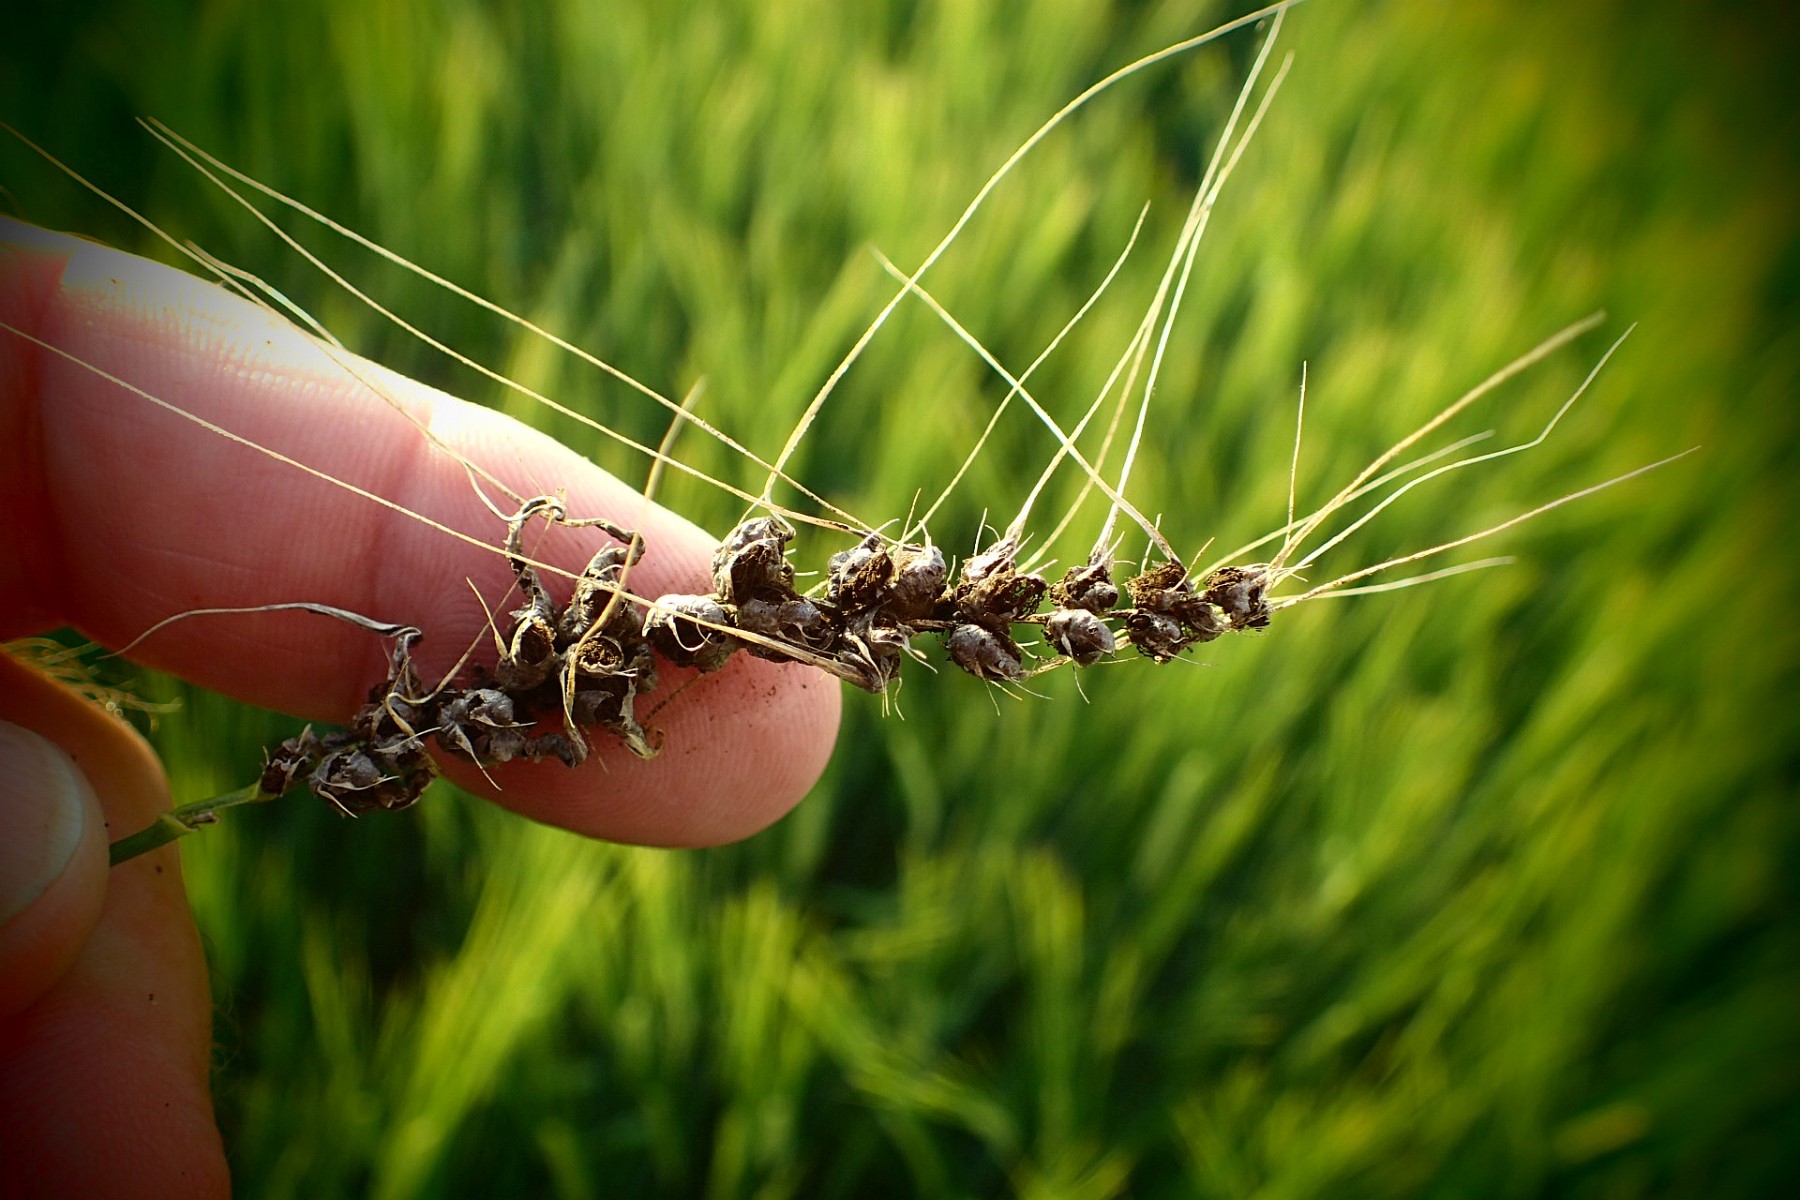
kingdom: Fungi
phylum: Basidiomycota
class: Ustilaginomycetes
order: Ustilaginales
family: Ustilaginaceae
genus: Ustilago
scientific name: Ustilago hordei
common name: Covered smut of barley & oats
